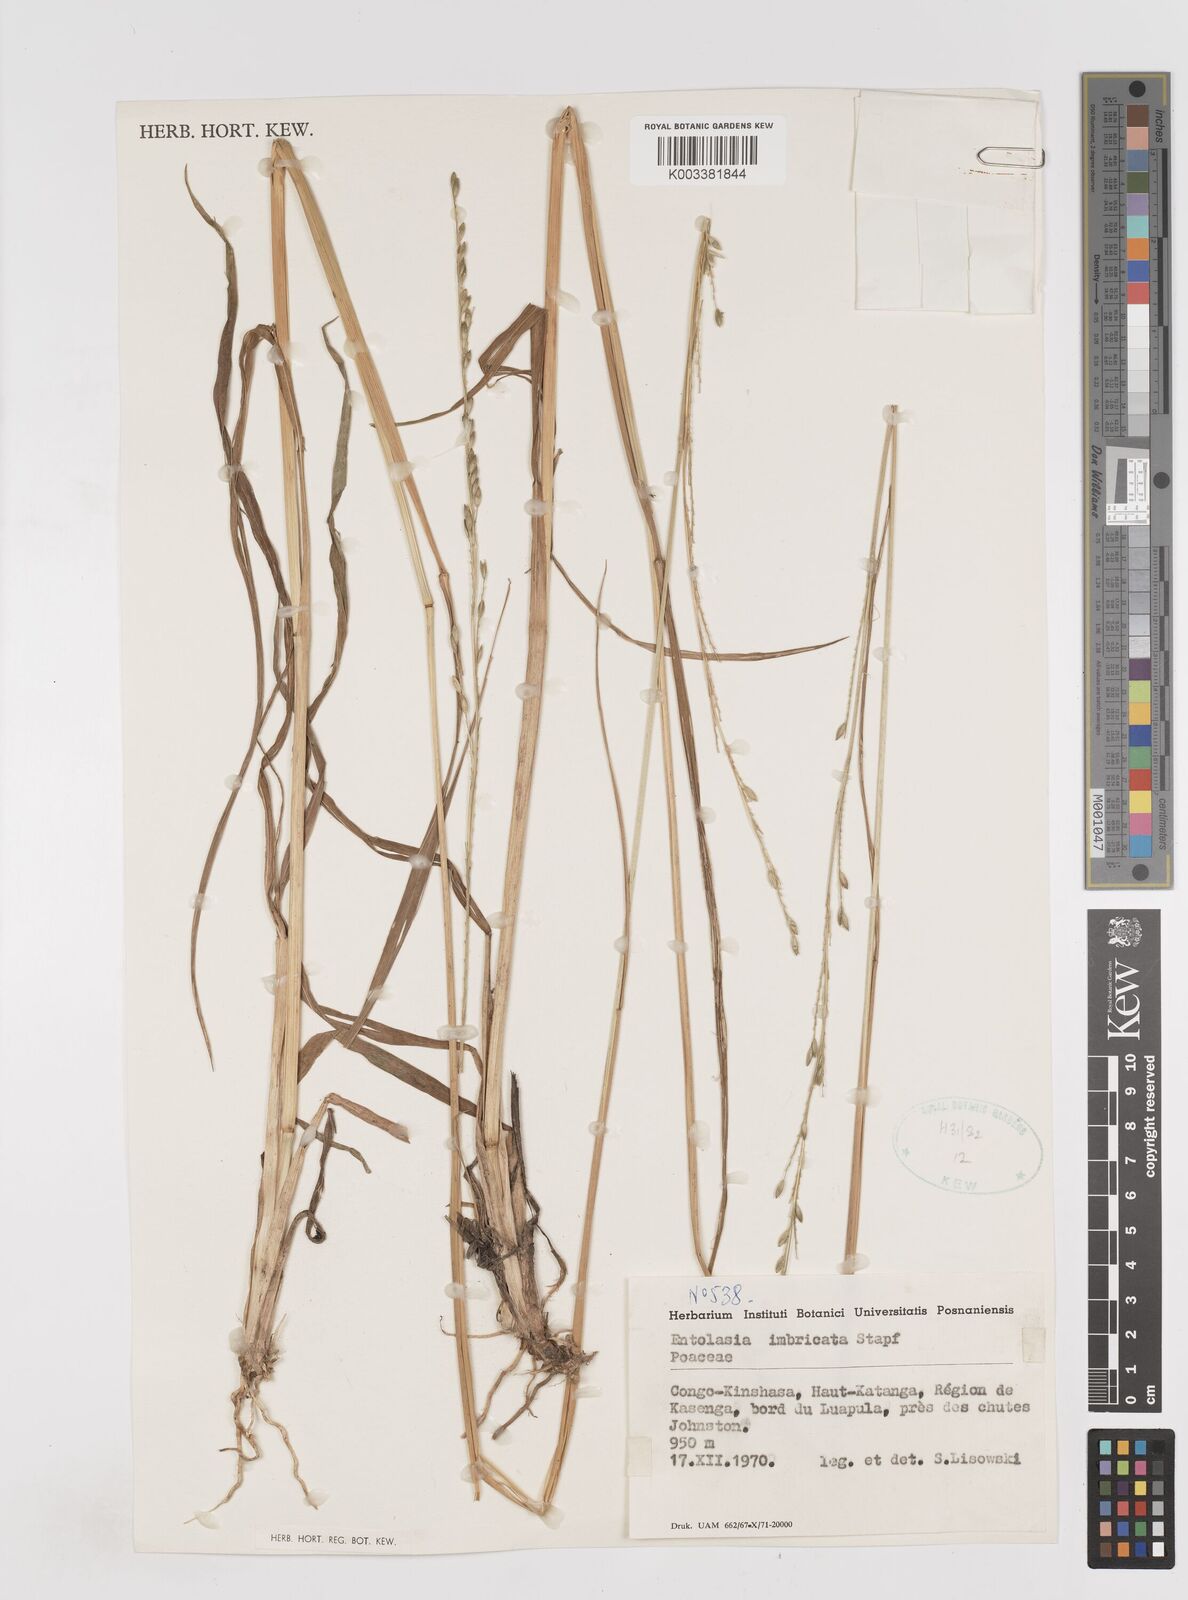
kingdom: Plantae
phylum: Tracheophyta
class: Liliopsida
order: Poales
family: Poaceae
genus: Entolasia
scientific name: Entolasia imbricata
